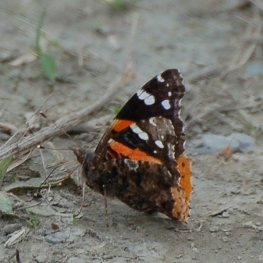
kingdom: Animalia
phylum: Arthropoda
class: Insecta
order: Lepidoptera
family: Nymphalidae
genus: Vanessa
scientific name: Vanessa atalanta
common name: Red Admiral
